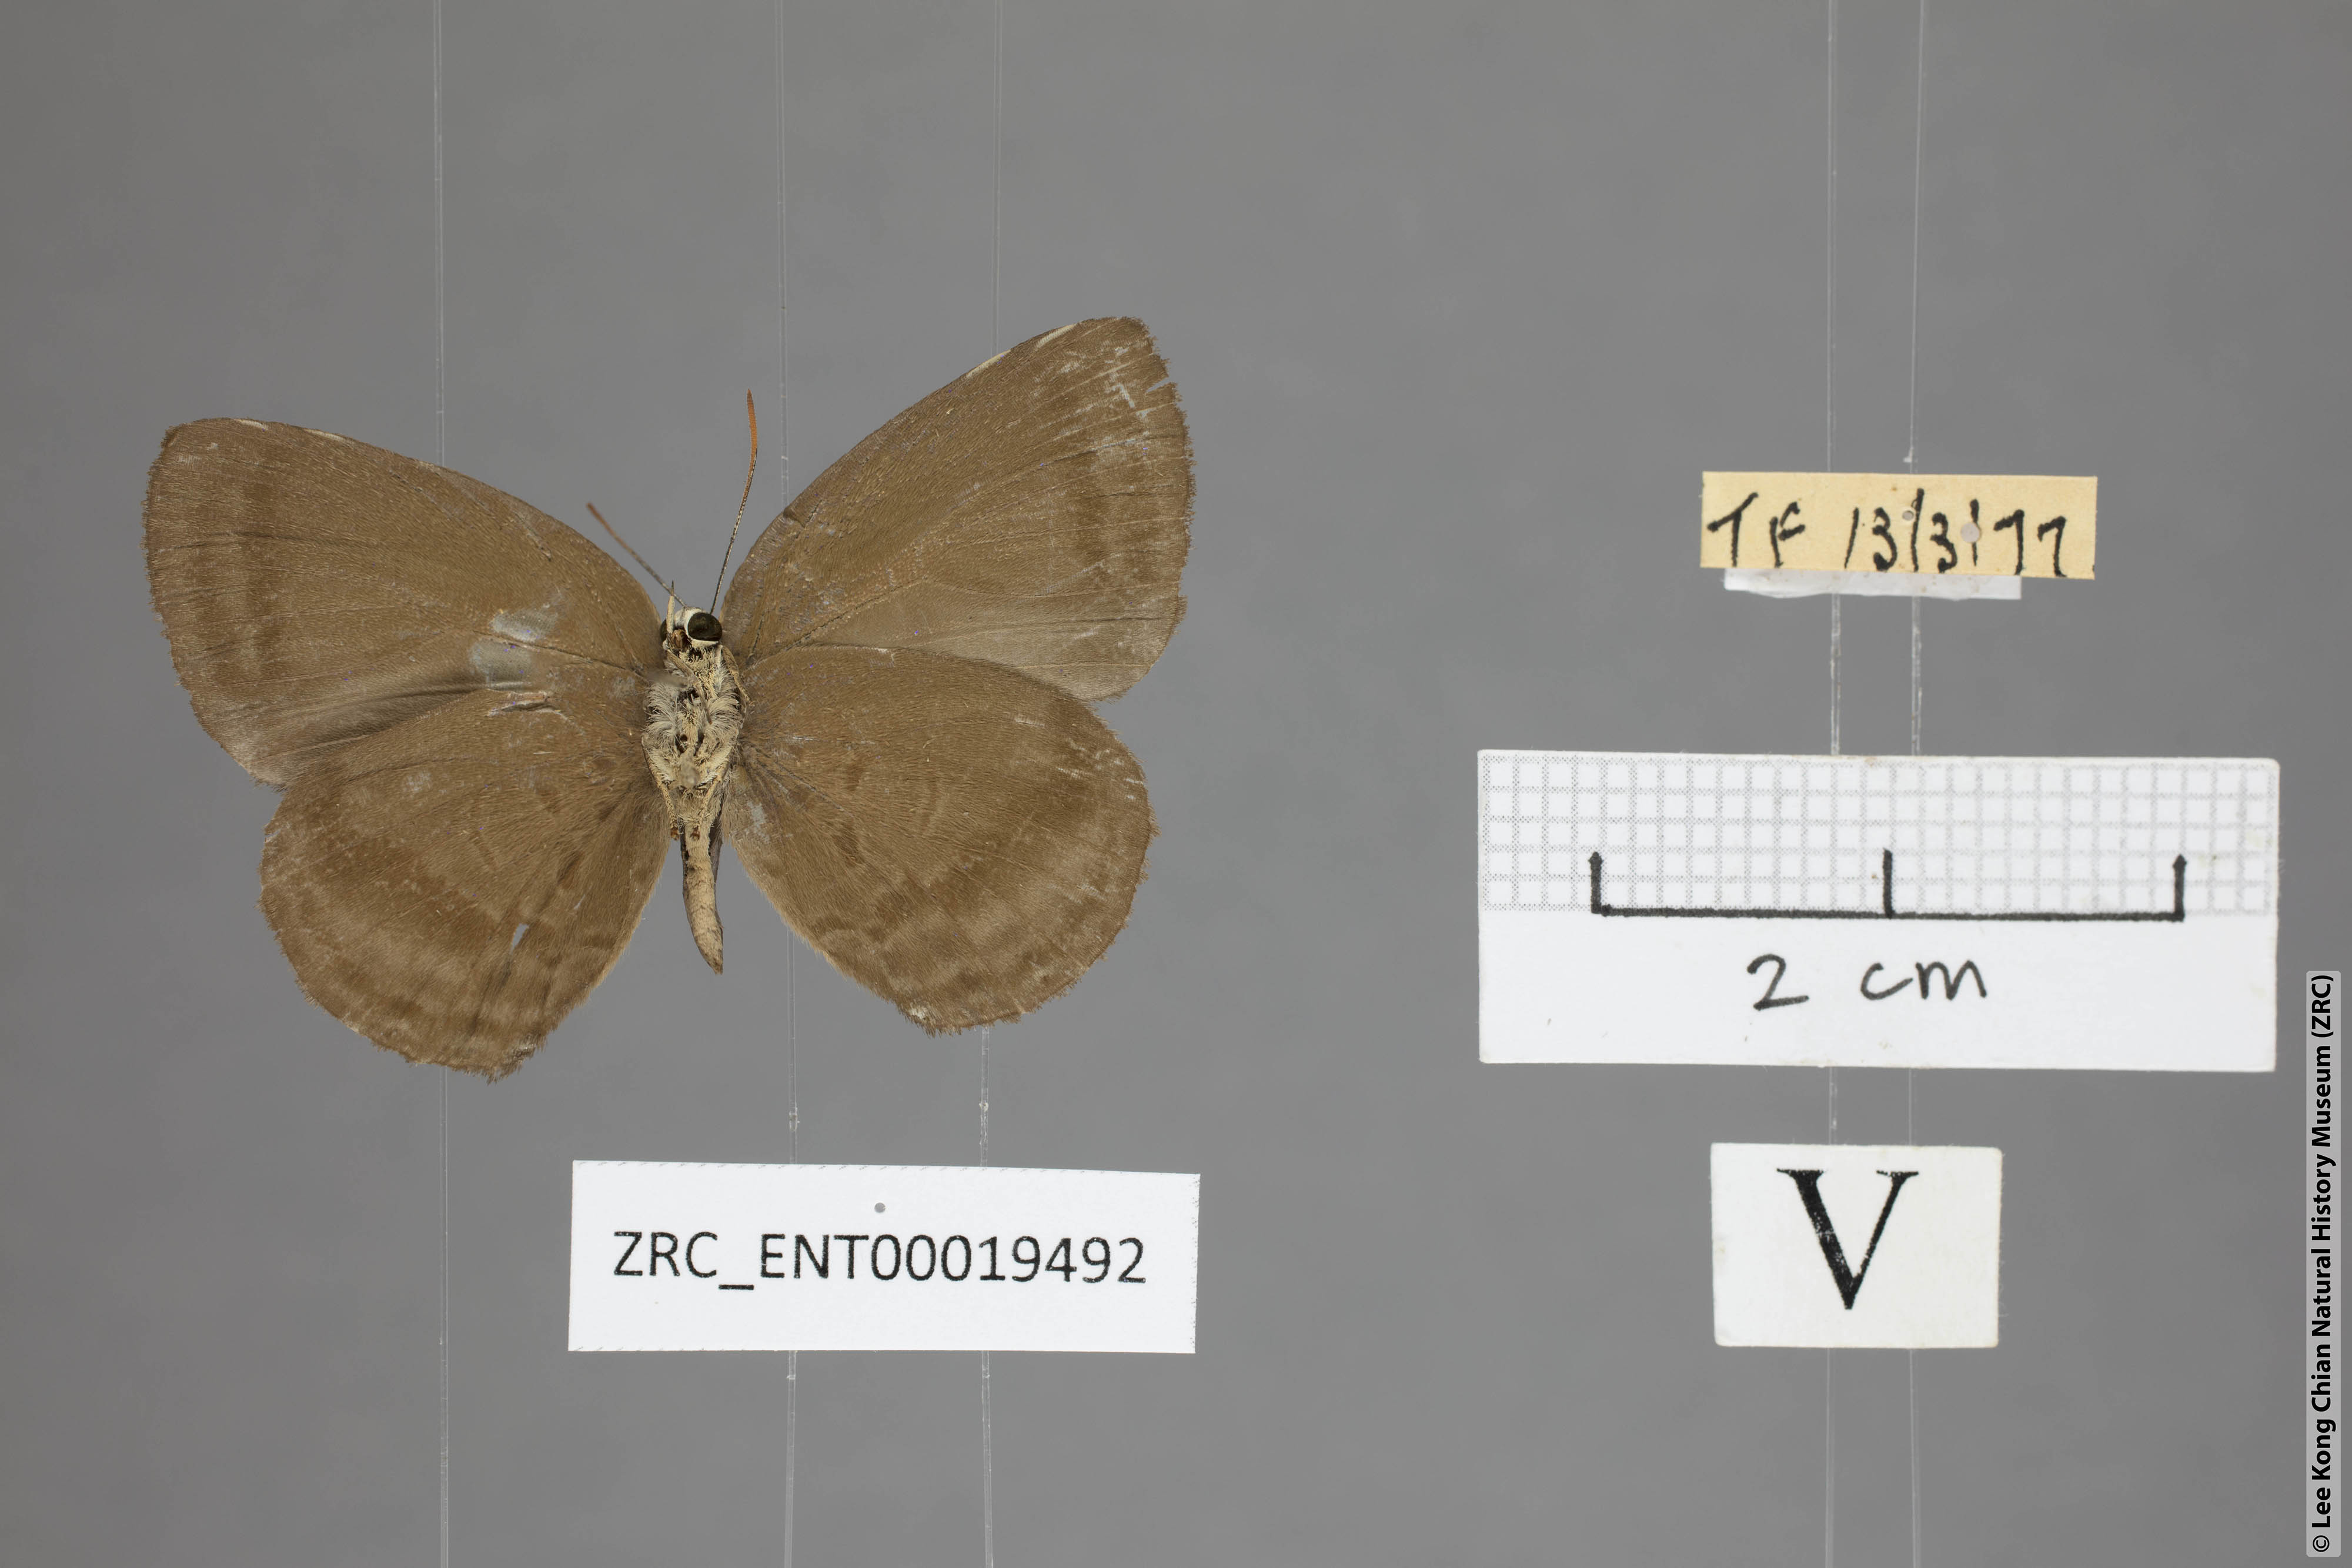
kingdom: Animalia
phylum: Arthropoda
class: Insecta
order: Lepidoptera
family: Lycaenidae
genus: Arhopala
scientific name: Arhopala fulla
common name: Spotless oakblue
